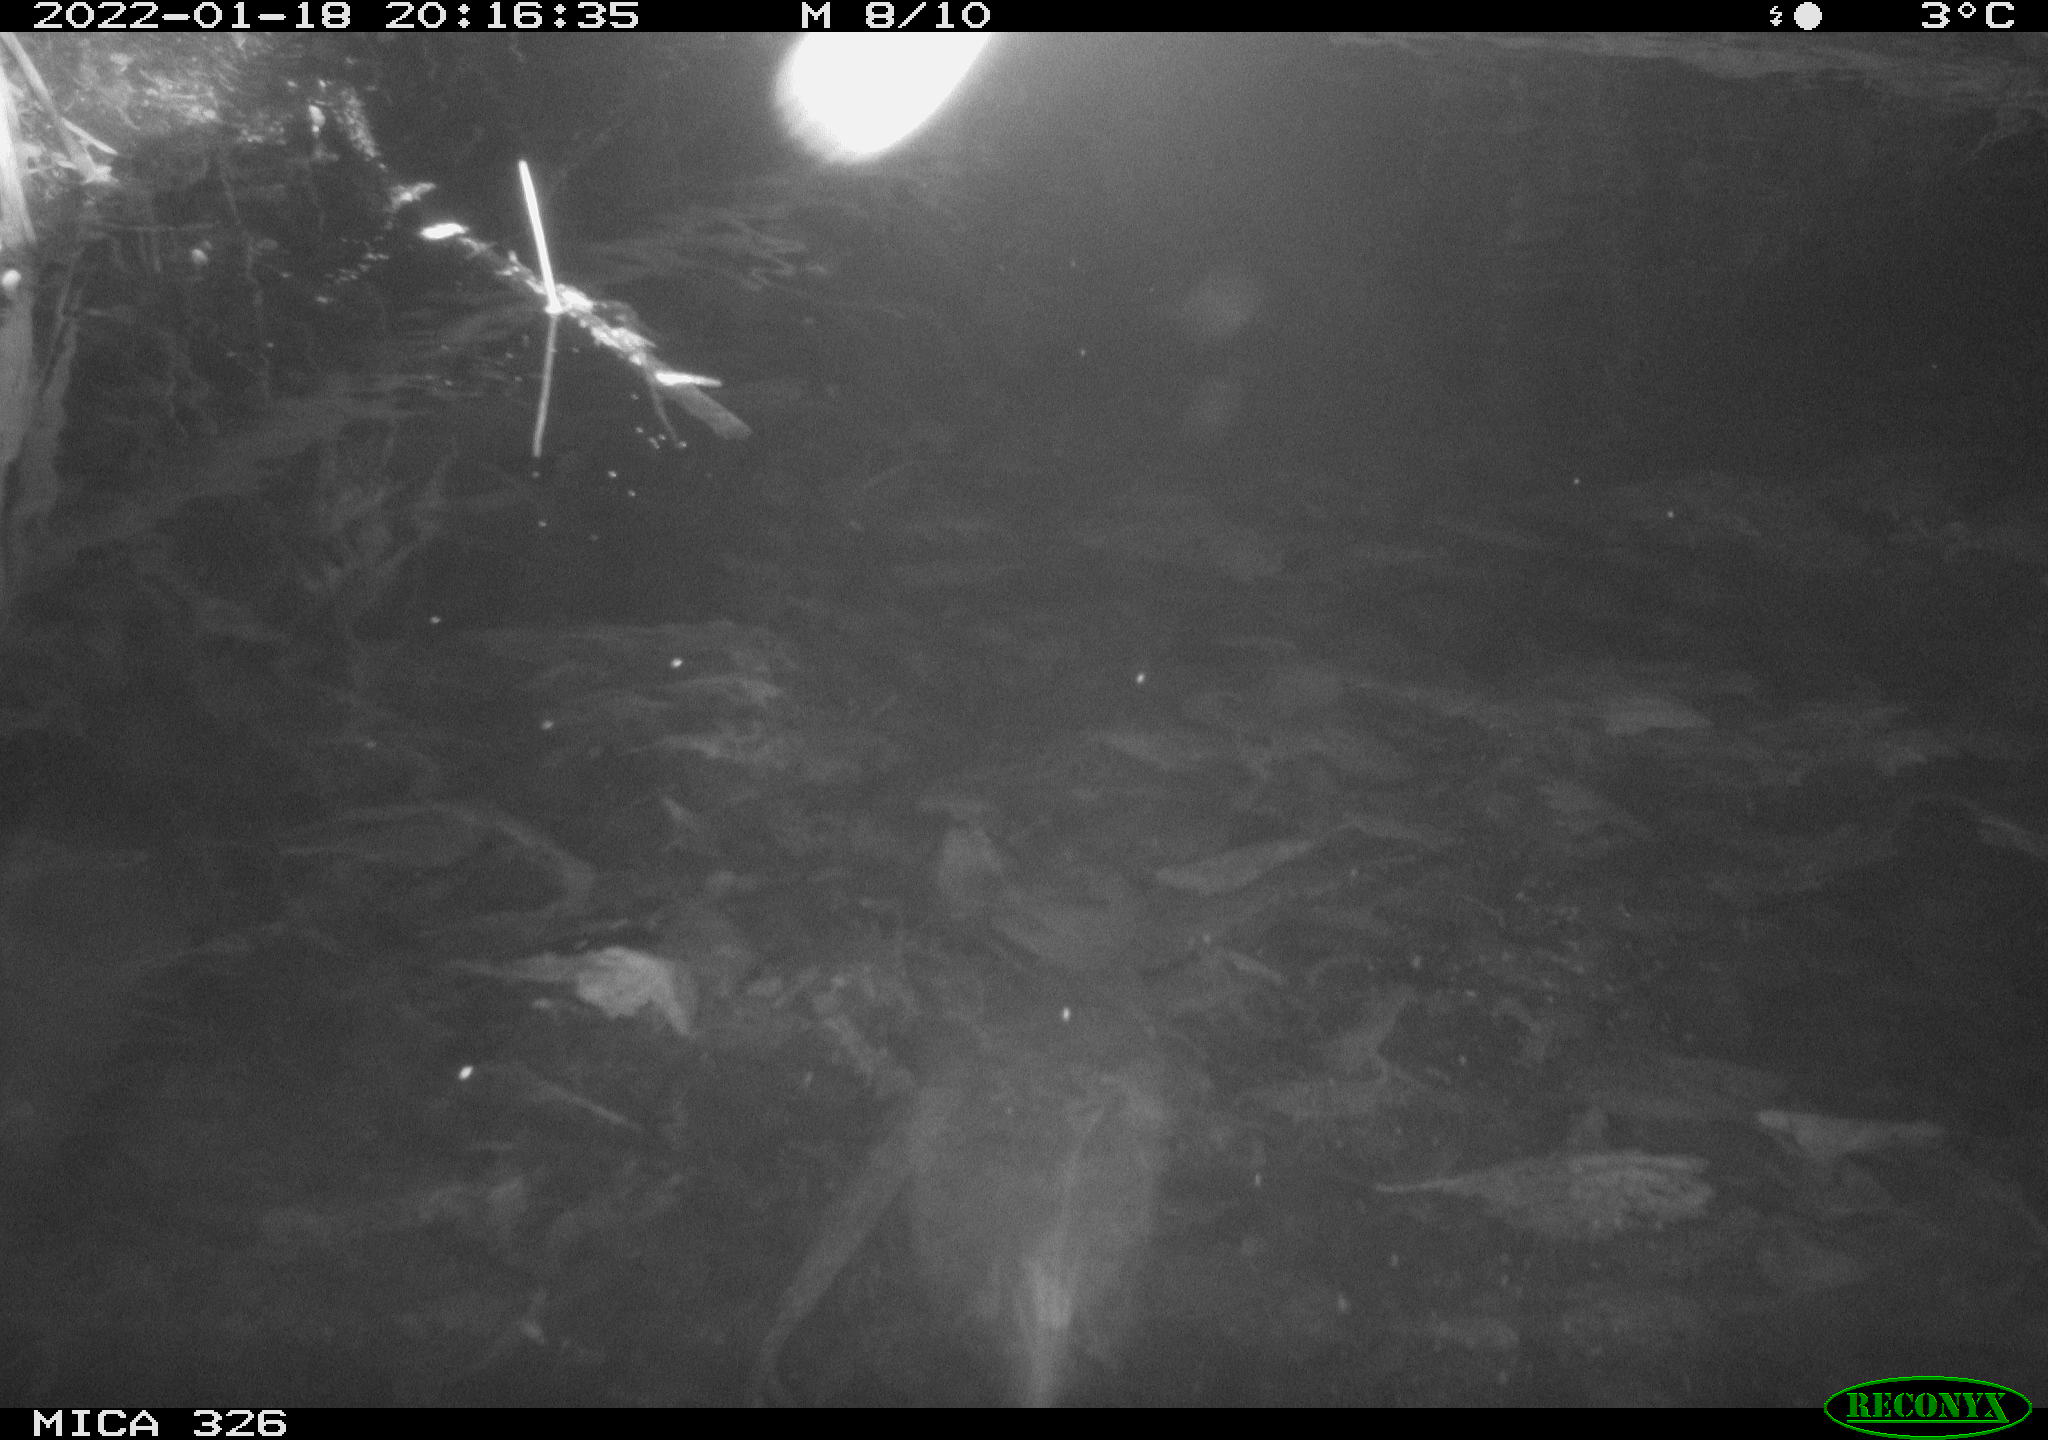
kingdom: Animalia
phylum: Chordata
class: Mammalia
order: Rodentia
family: Cricetidae
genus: Ondatra
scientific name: Ondatra zibethicus
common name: Muskrat
